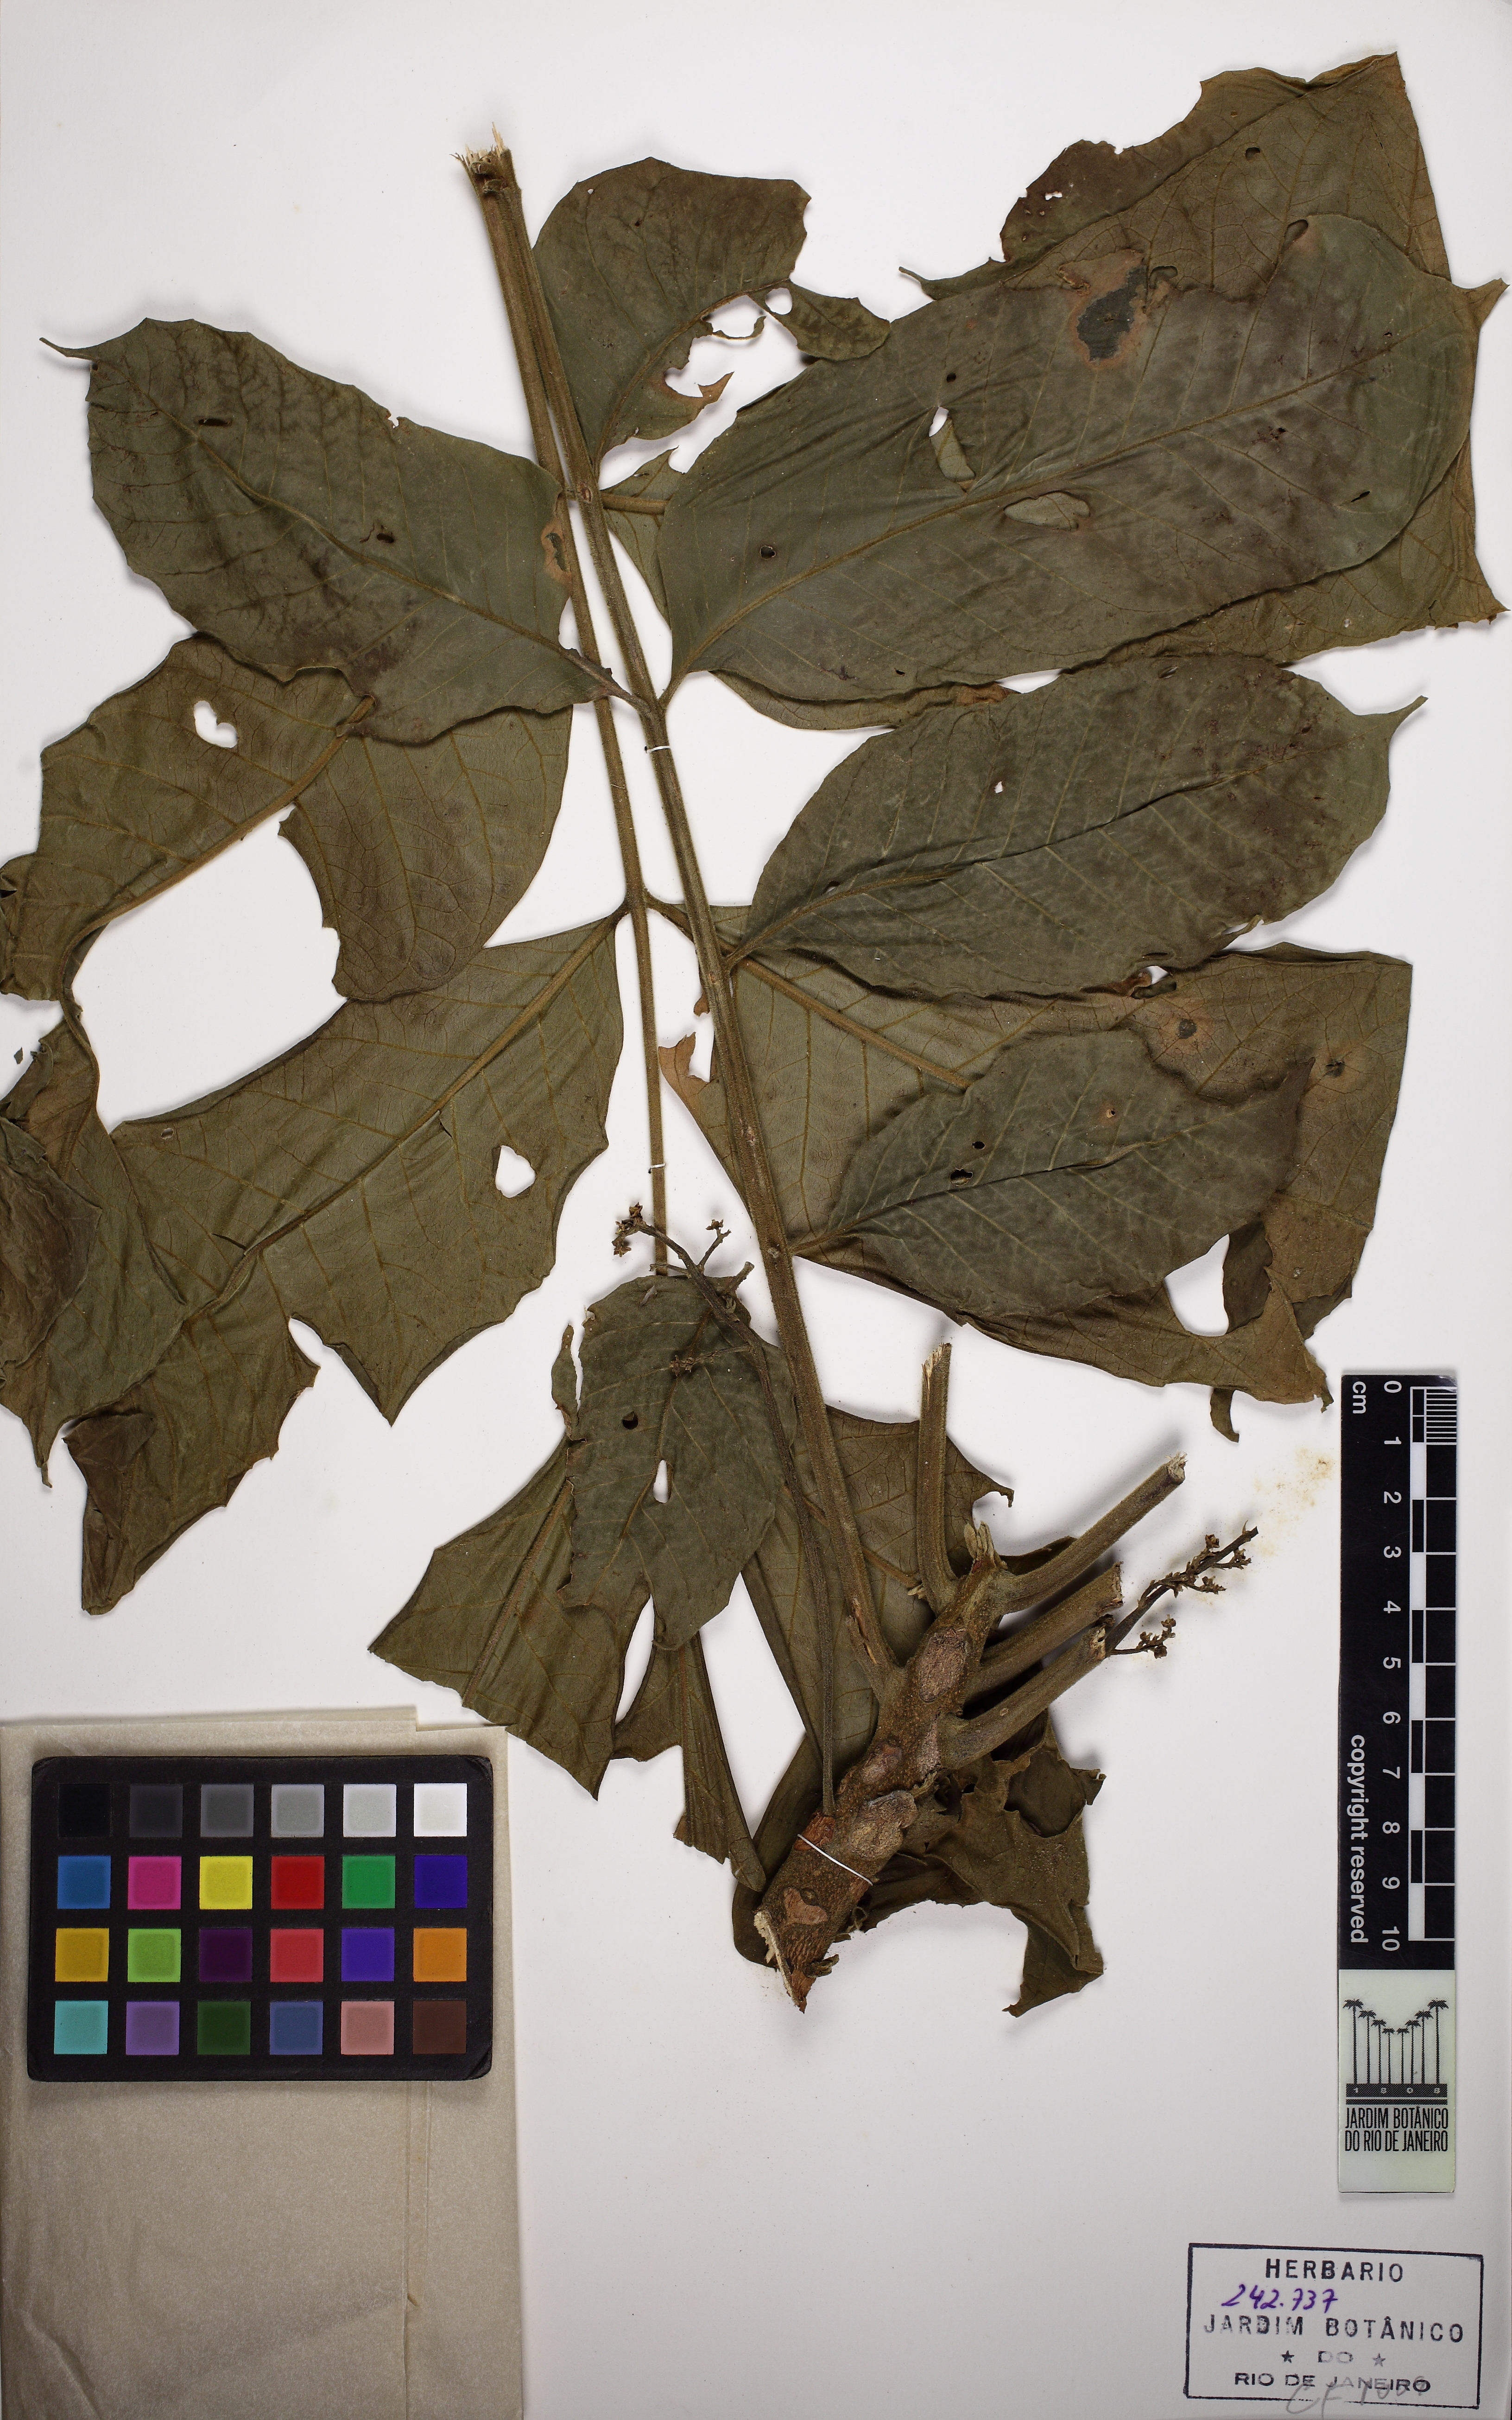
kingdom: Plantae
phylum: Tracheophyta
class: Magnoliopsida
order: Sapindales
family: Meliaceae
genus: Guarea
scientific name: Guarea kunthiana
